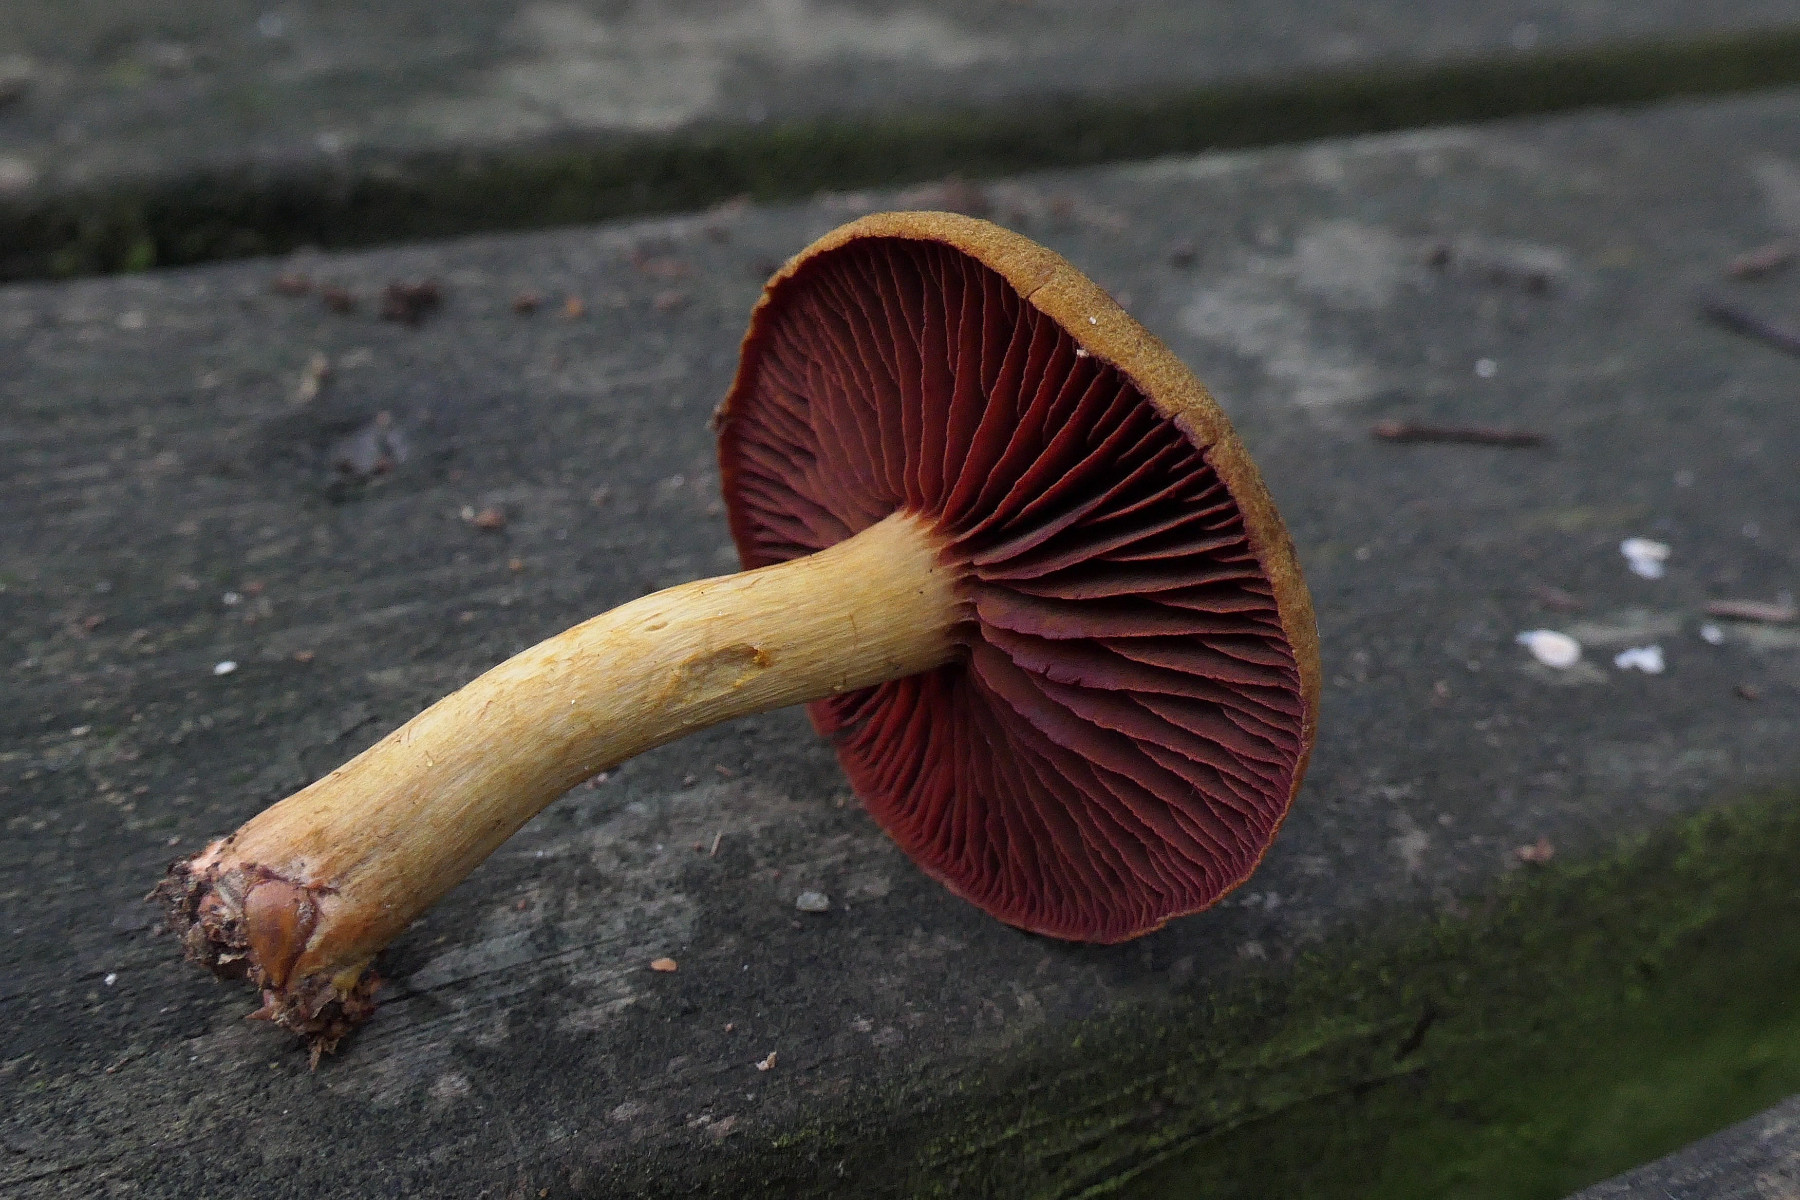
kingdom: Fungi
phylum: Basidiomycota
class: Agaricomycetes
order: Agaricales
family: Cortinariaceae
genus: Cortinarius
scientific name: Cortinarius
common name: cinnoberbladet slørhat
